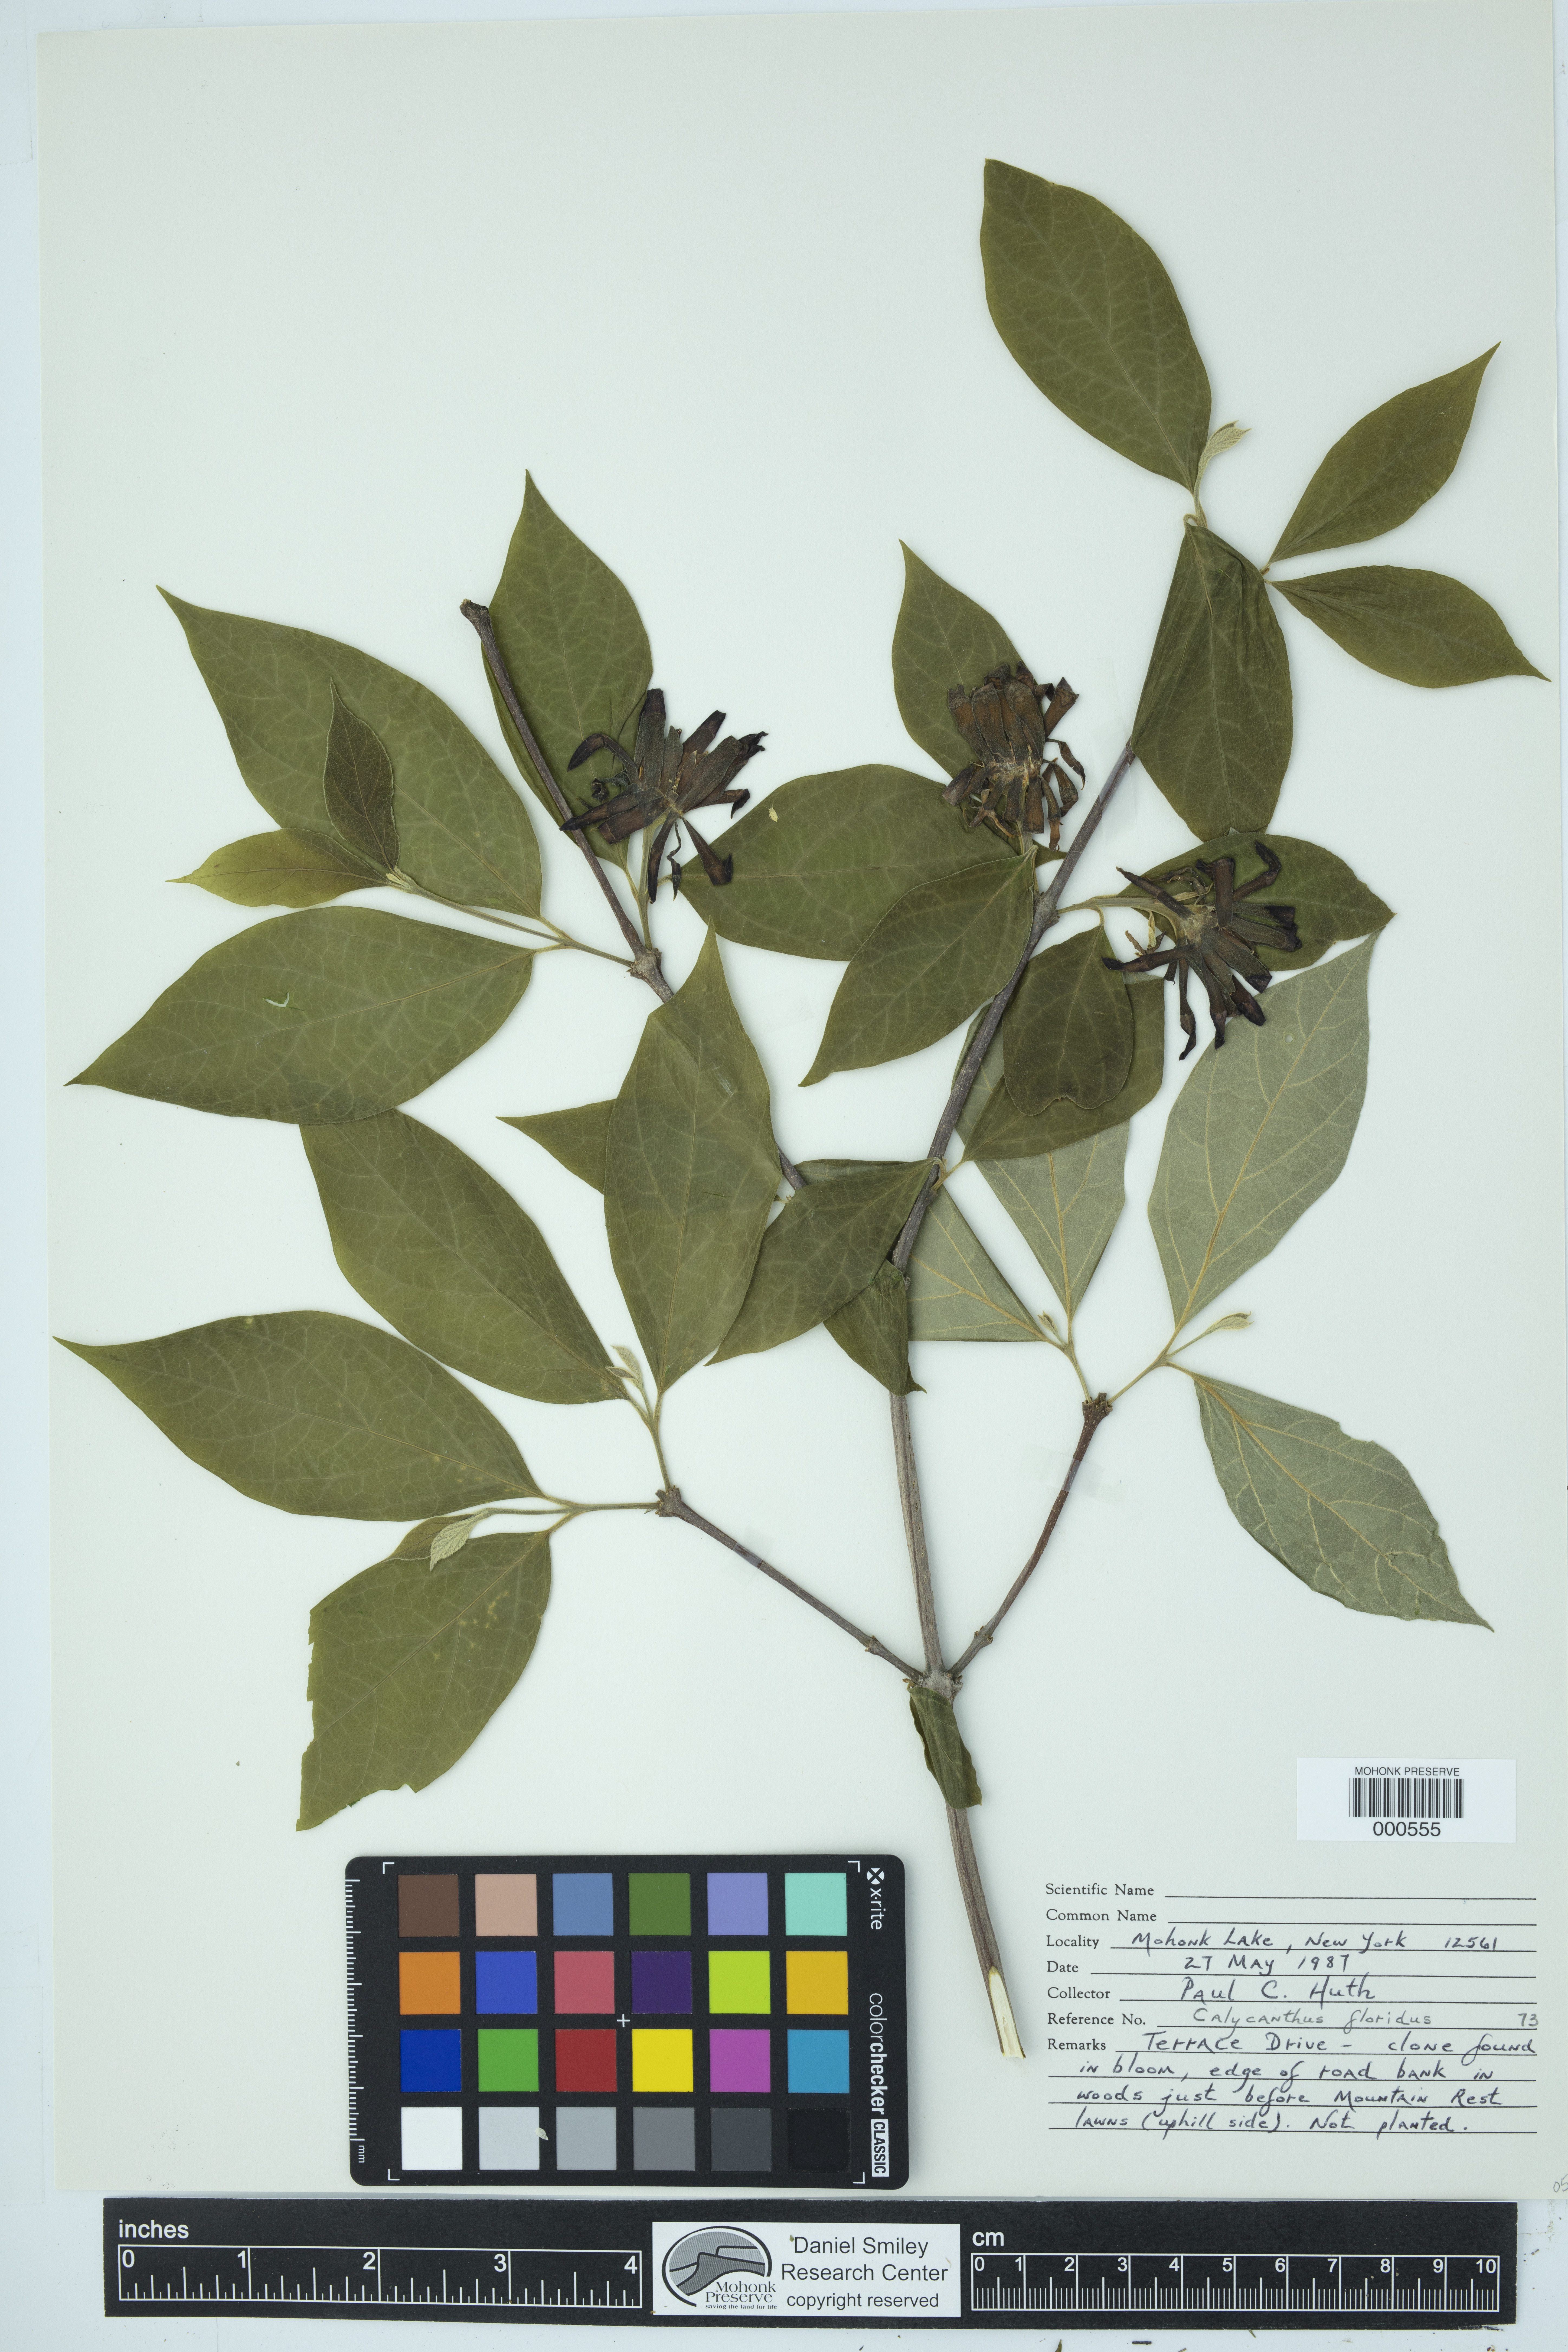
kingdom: Plantae
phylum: Tracheophyta
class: Magnoliopsida
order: Laurales
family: Calycanthaceae
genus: Calycanthus
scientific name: Calycanthus floridus
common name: Carolina-allspice
